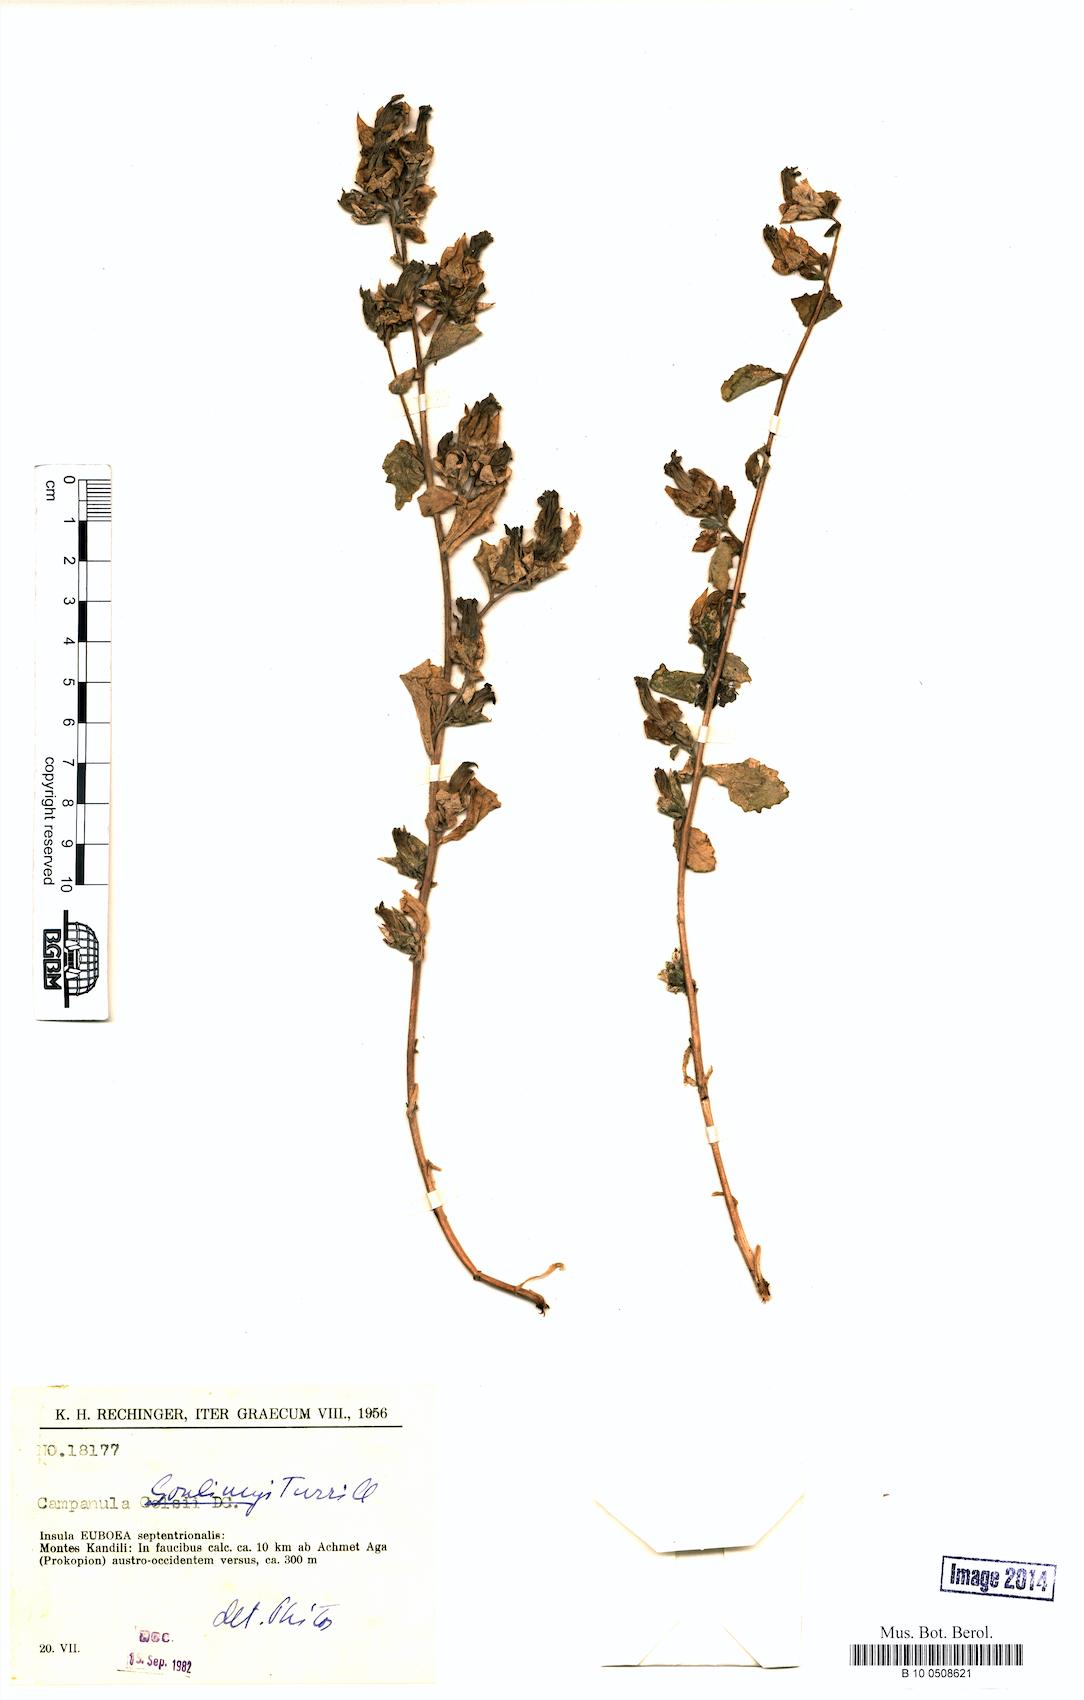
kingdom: Plantae
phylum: Tracheophyta
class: Magnoliopsida
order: Asterales
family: Campanulaceae
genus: Campanula
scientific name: Campanula goulimyi
